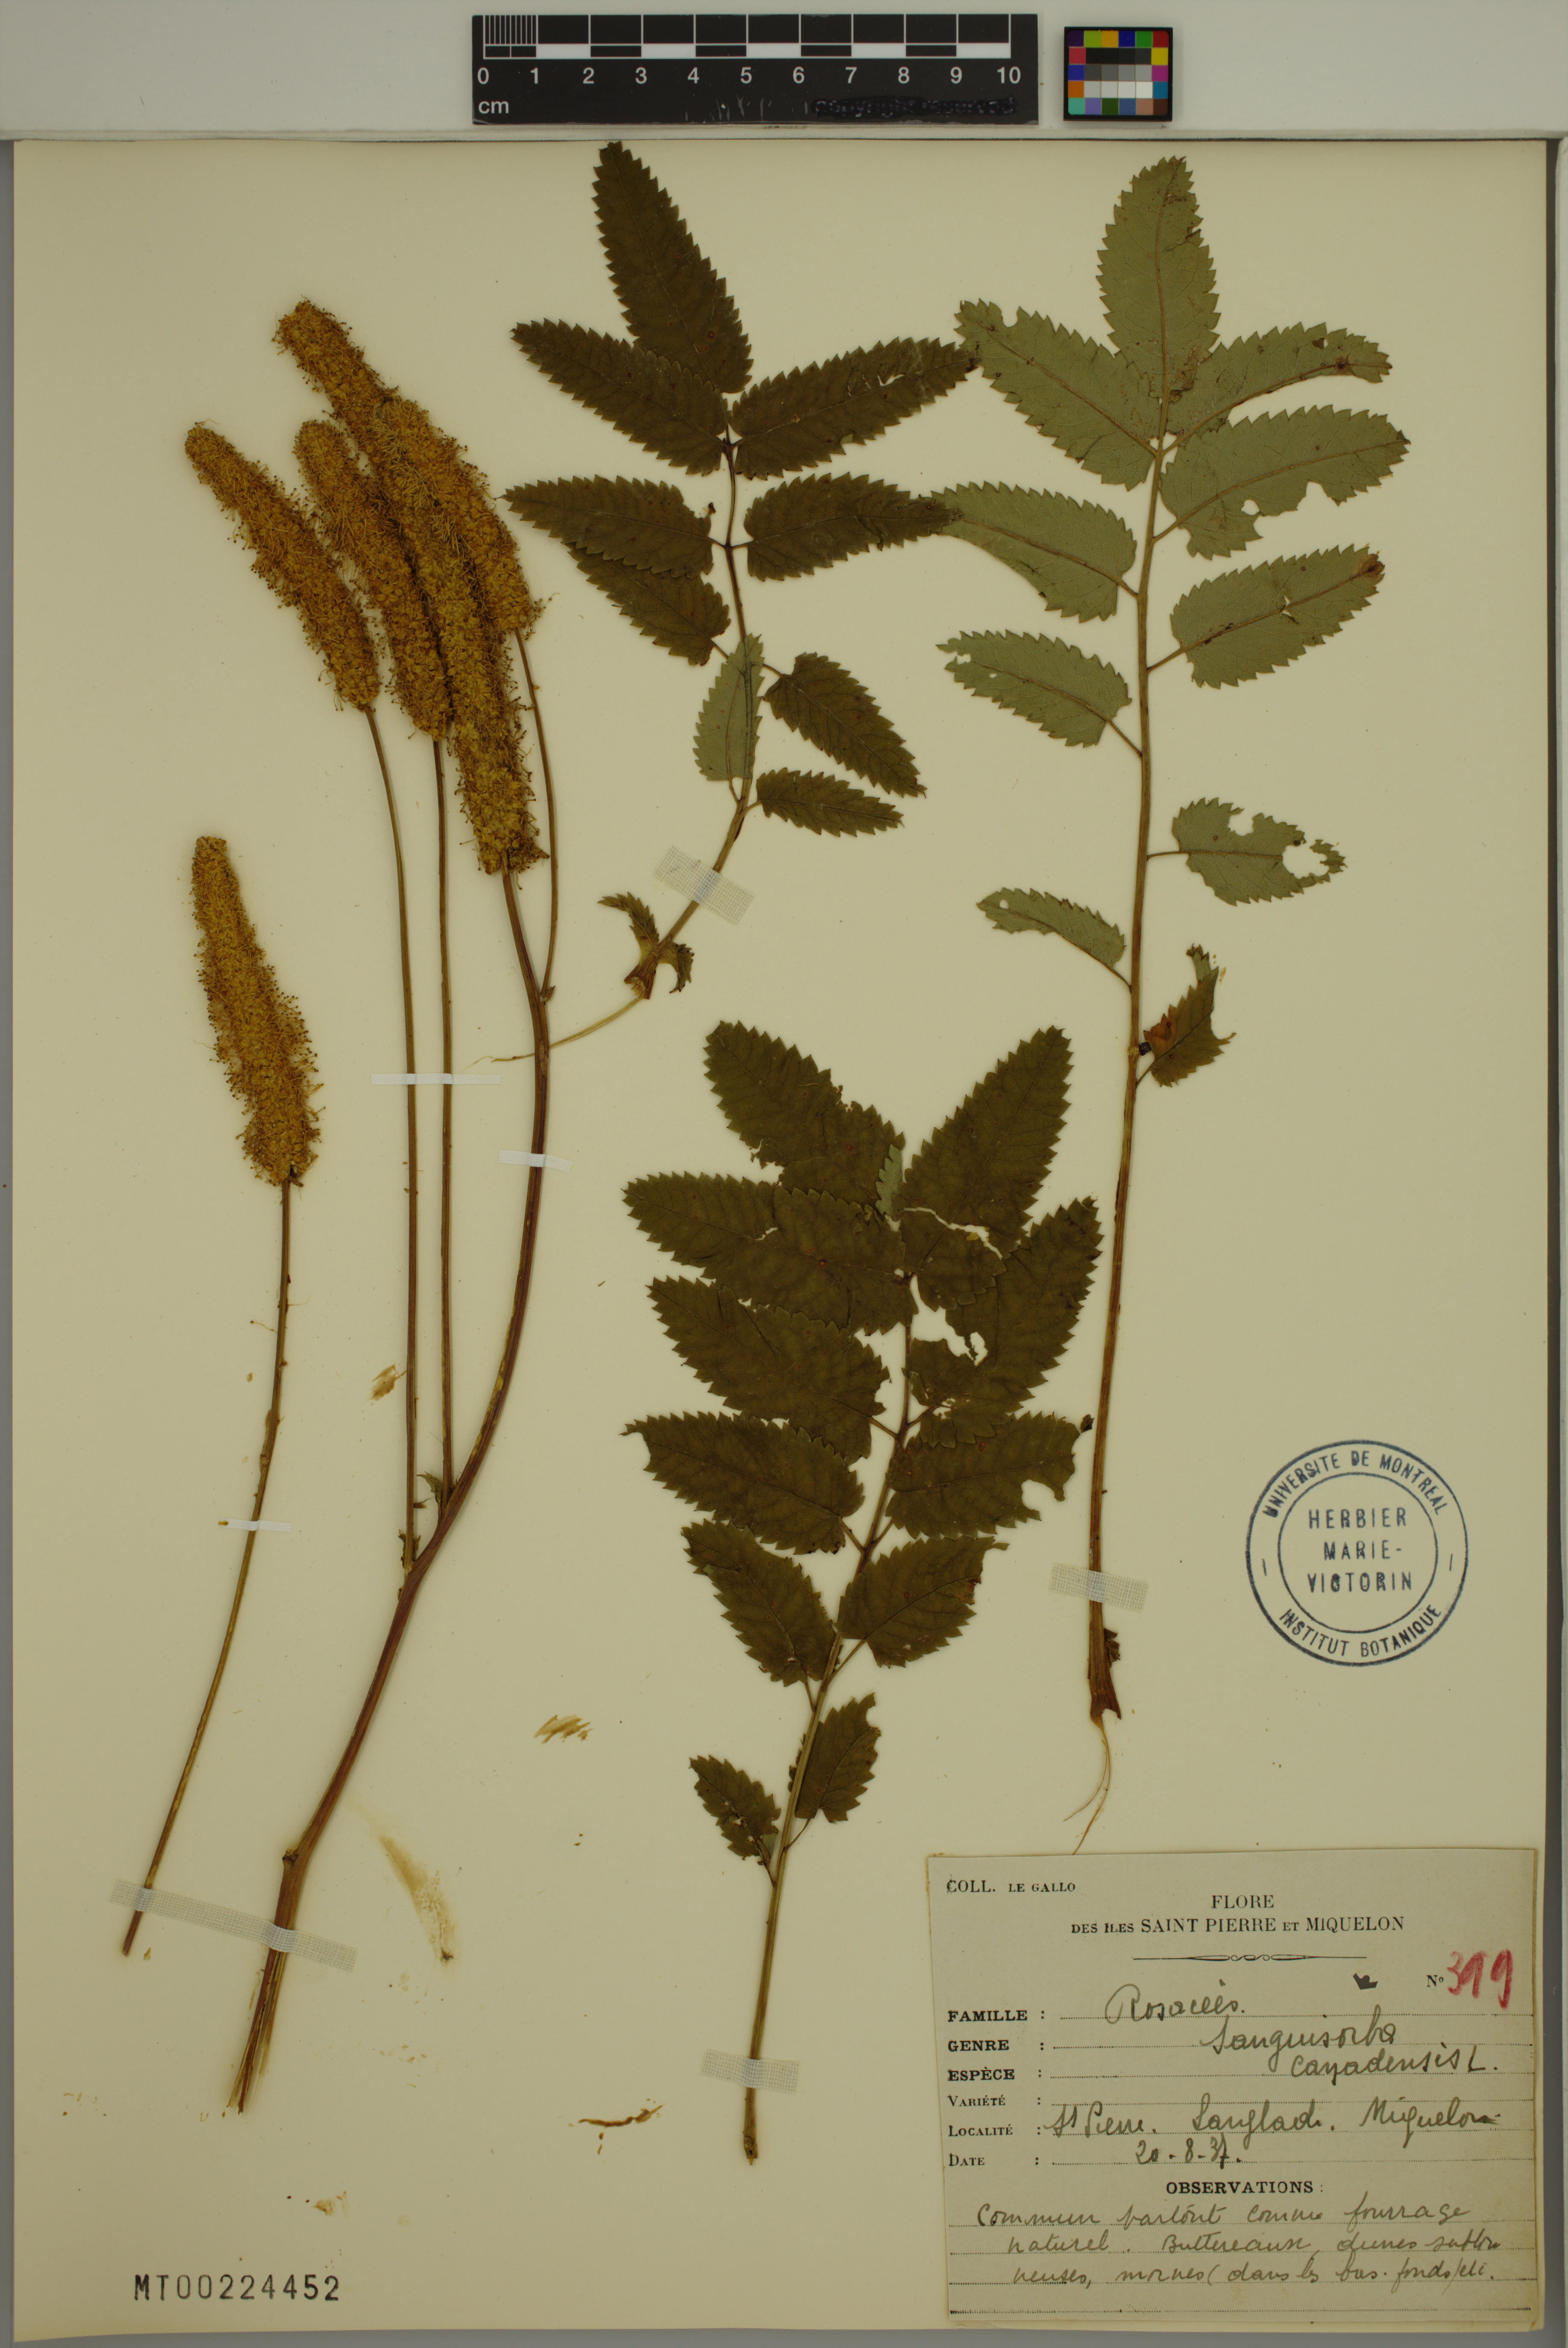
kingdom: Plantae
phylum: Tracheophyta
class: Magnoliopsida
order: Rosales
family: Rosaceae
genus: Sanguisorba
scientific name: Sanguisorba canadensis
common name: White burnet
